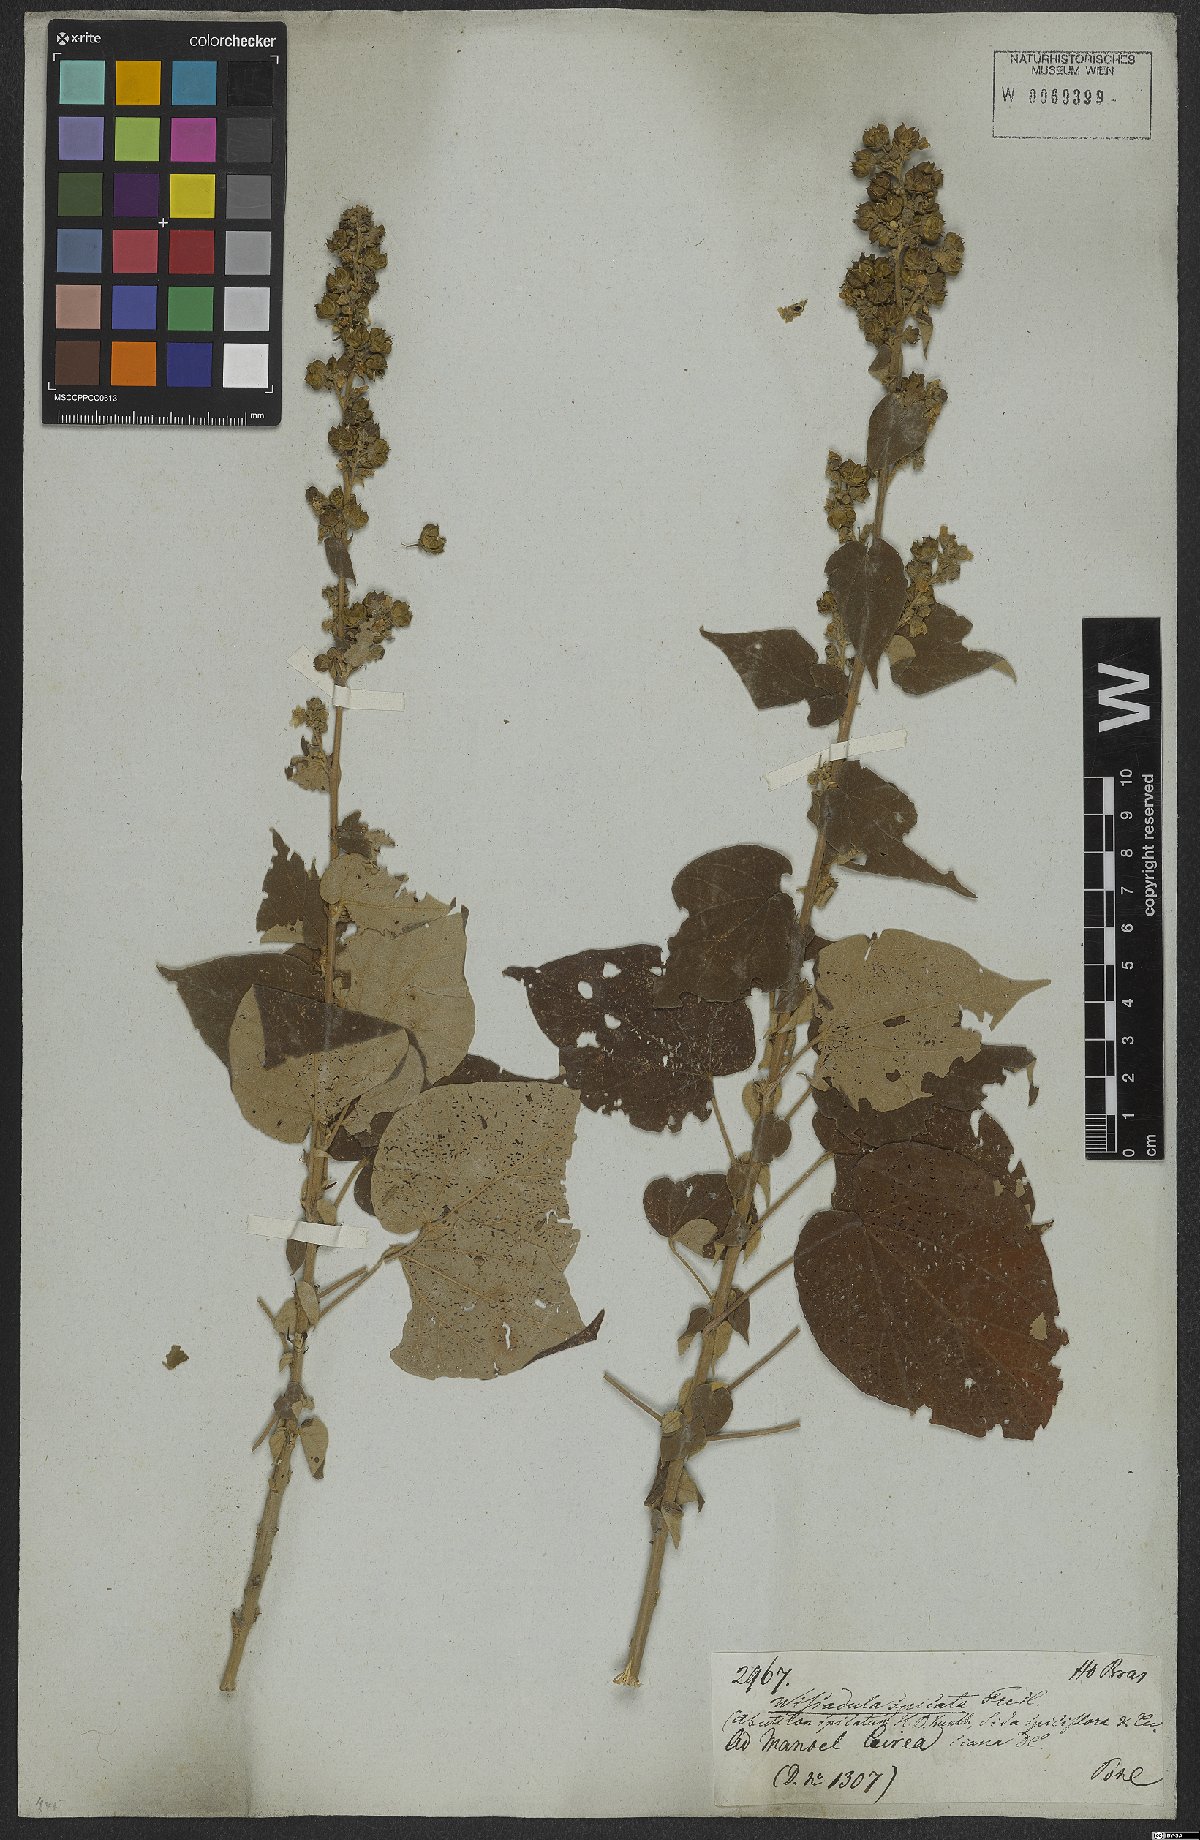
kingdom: Plantae
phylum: Tracheophyta
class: Magnoliopsida
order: Malvales
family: Malvaceae
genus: Allobriquetia
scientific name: Allobriquetia spicata
